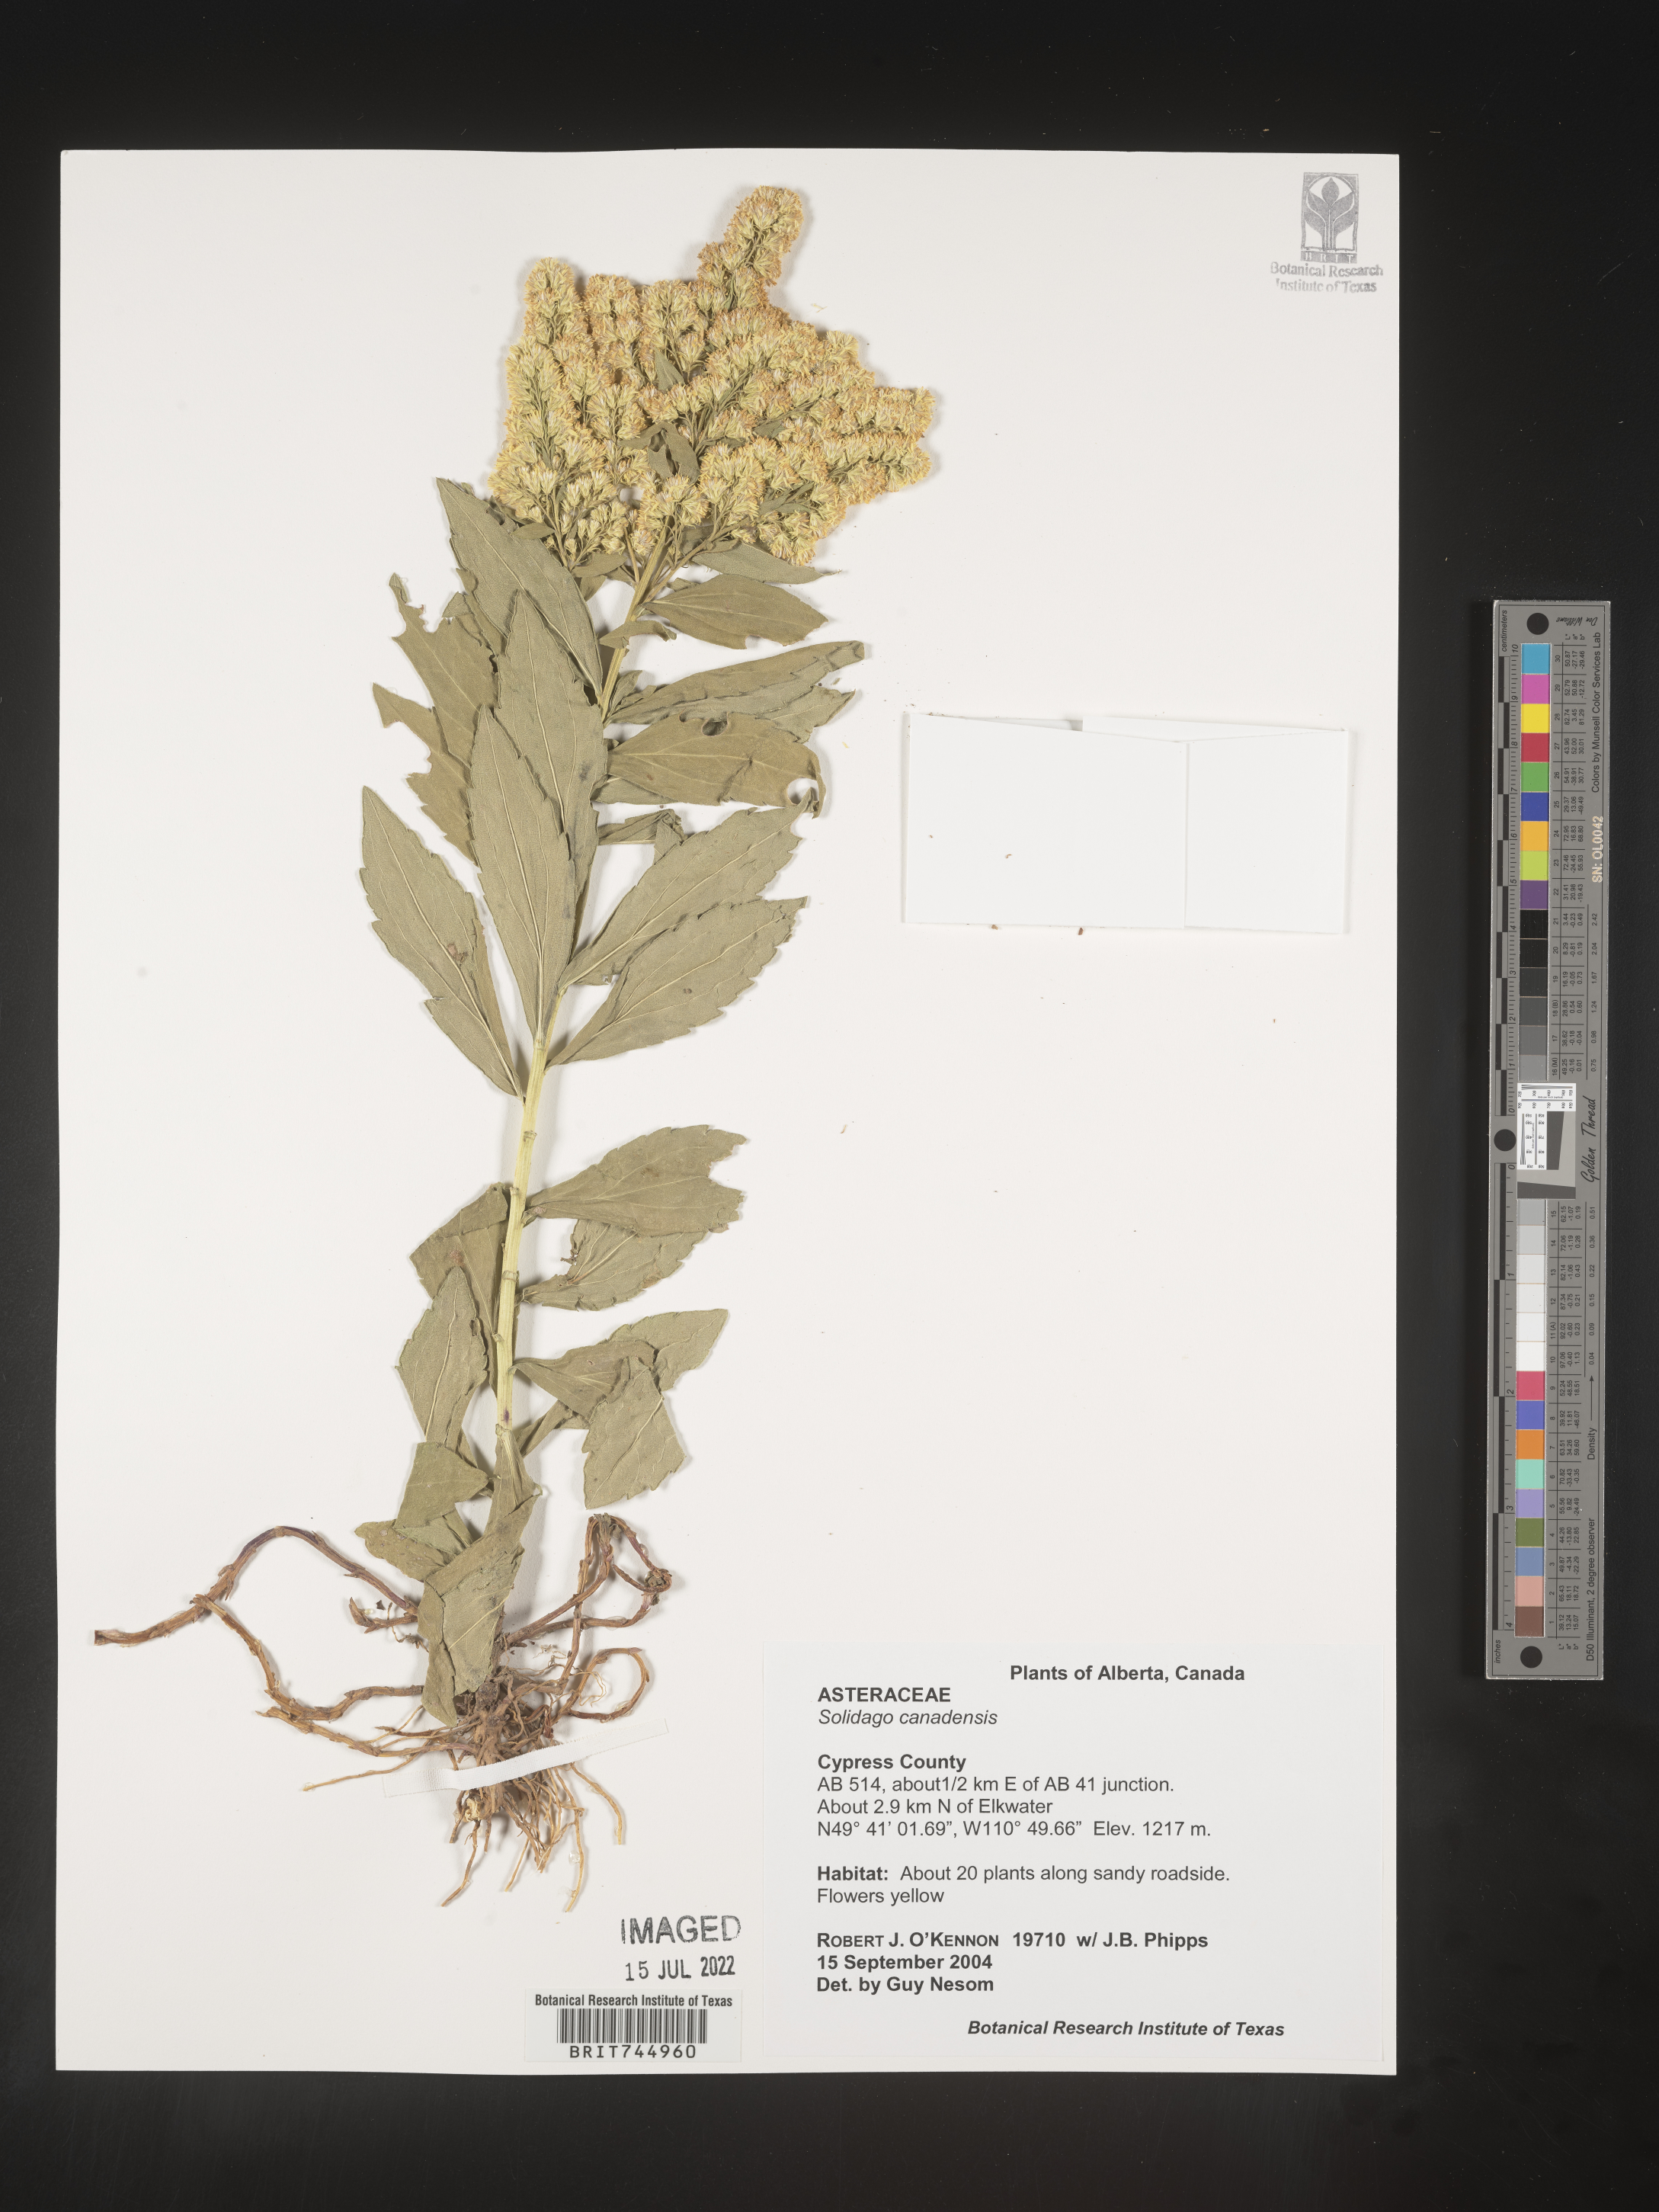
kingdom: Plantae
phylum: Tracheophyta
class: Magnoliopsida
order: Asterales
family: Asteraceae
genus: Solidago
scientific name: Solidago canadensis
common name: Canada goldenrod
